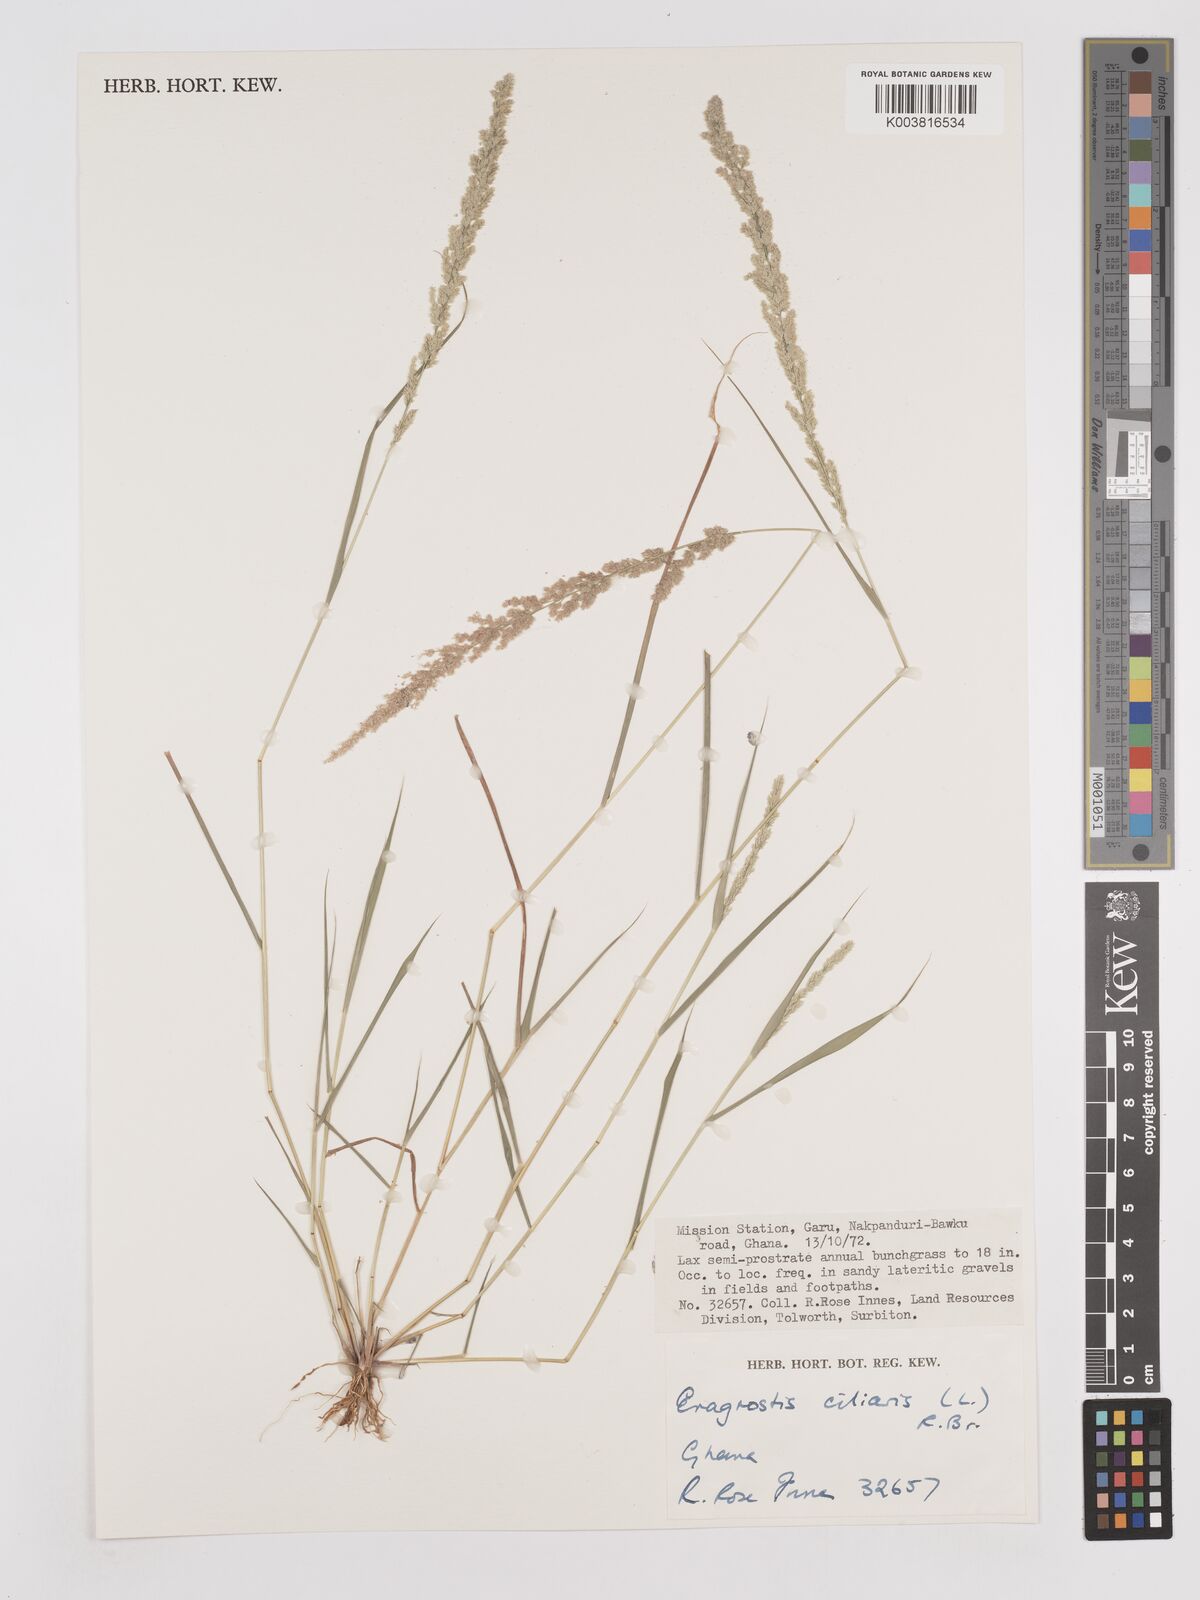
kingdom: Plantae
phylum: Tracheophyta
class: Liliopsida
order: Poales
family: Poaceae
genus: Eragrostis
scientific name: Eragrostis ciliaris
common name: Gophertail lovegrass
